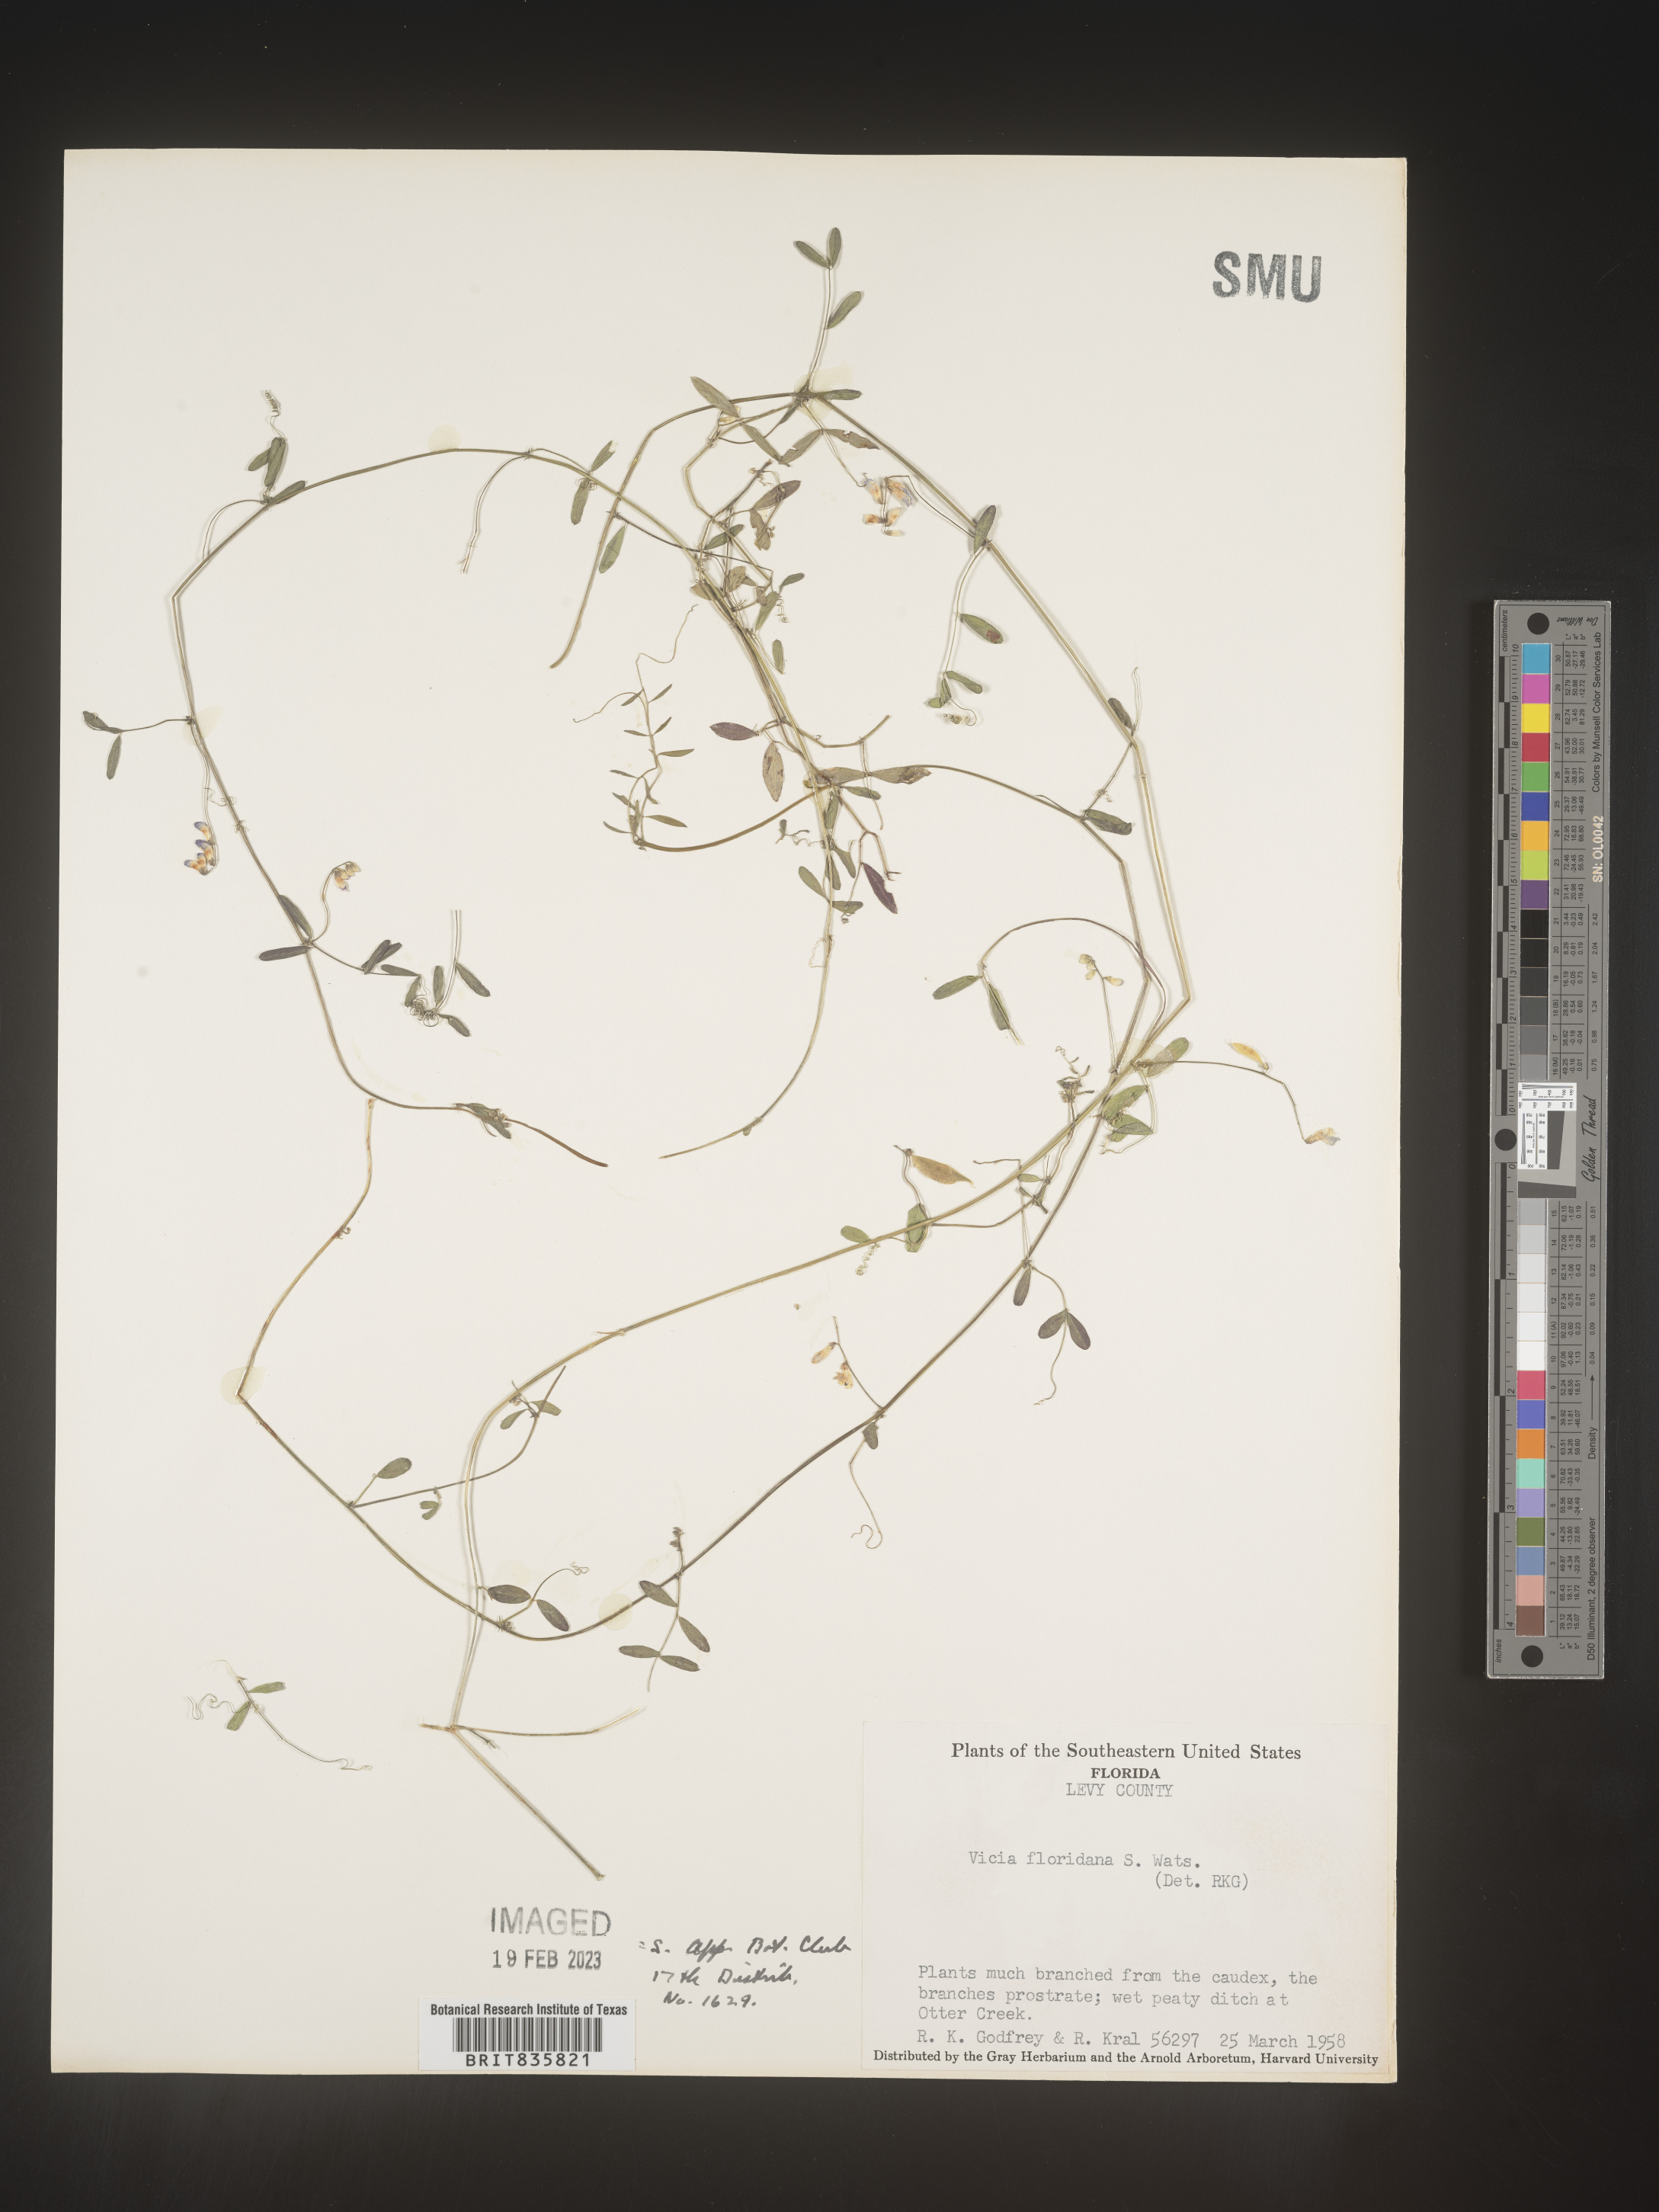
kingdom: Plantae
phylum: Tracheophyta
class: Magnoliopsida
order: Fabales
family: Fabaceae
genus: Vicia
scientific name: Vicia
